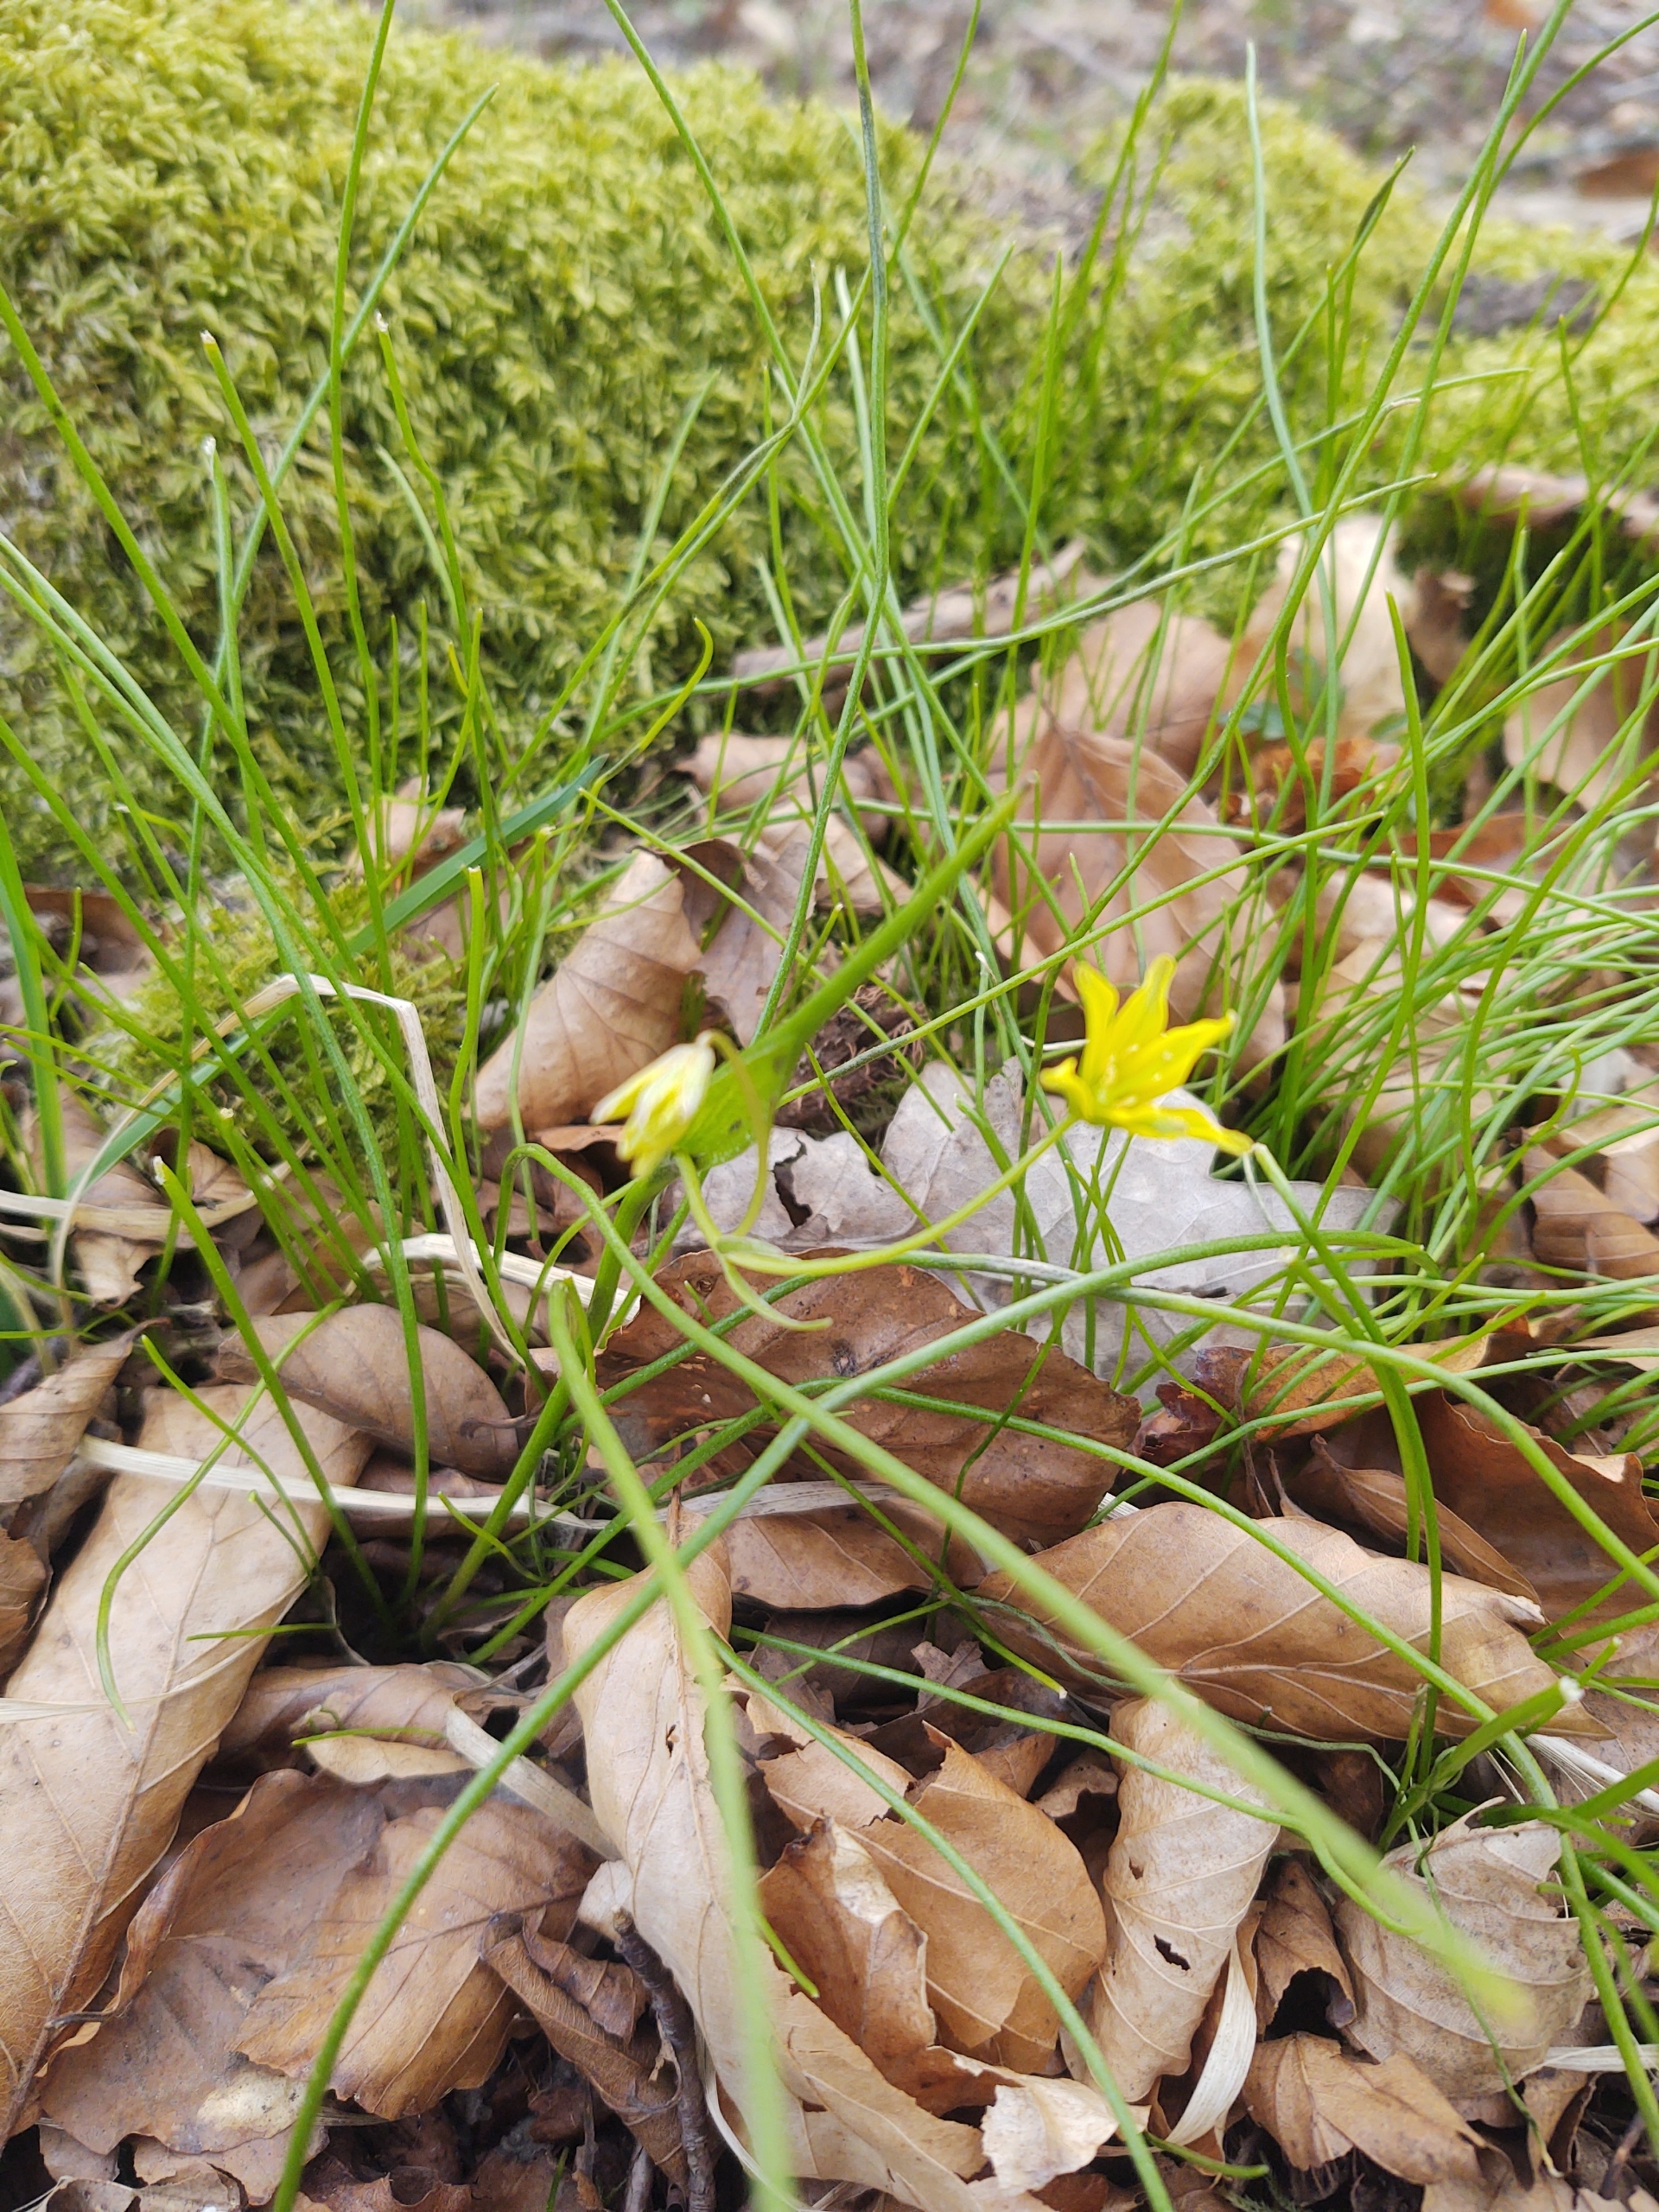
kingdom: Plantae
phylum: Tracheophyta
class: Liliopsida
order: Liliales
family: Liliaceae
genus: Gagea
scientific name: Gagea spathacea
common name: Hylster-guldstjerne
